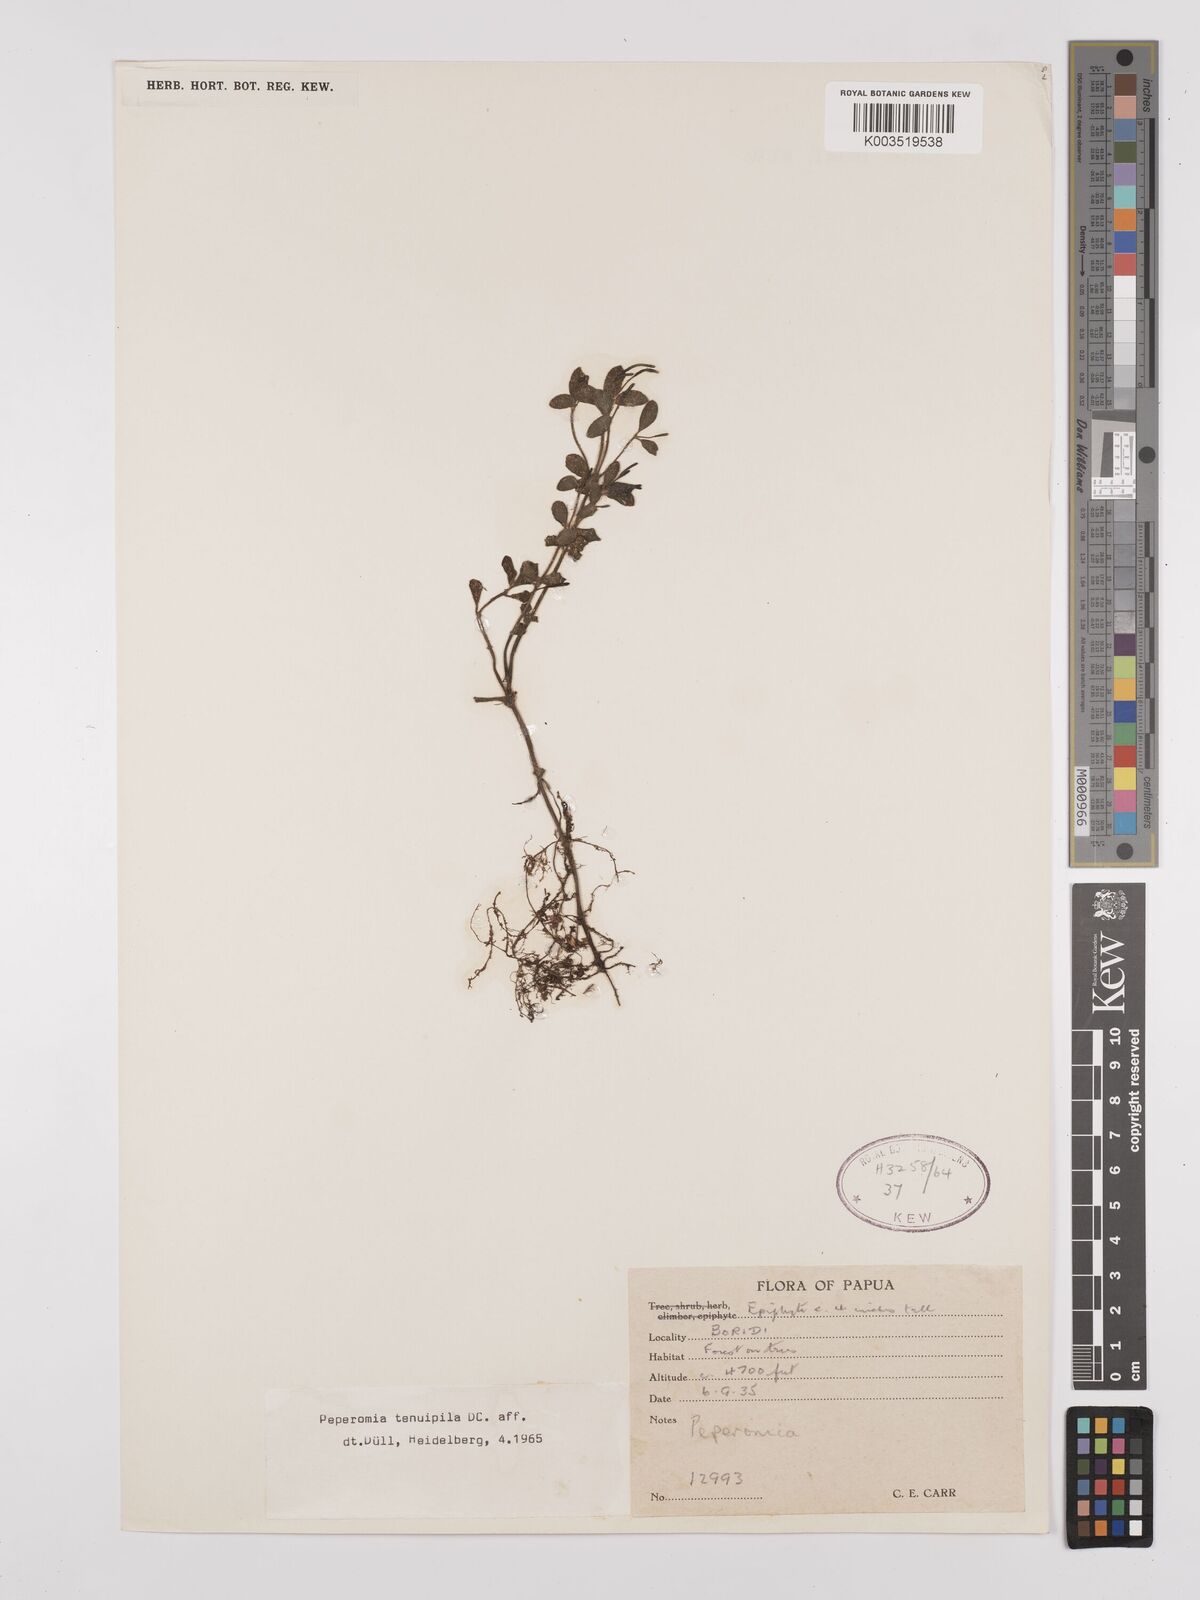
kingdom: Plantae
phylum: Tracheophyta
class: Magnoliopsida
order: Piperales
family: Piperaceae
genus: Peperomia
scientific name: Peperomia tenuipila
